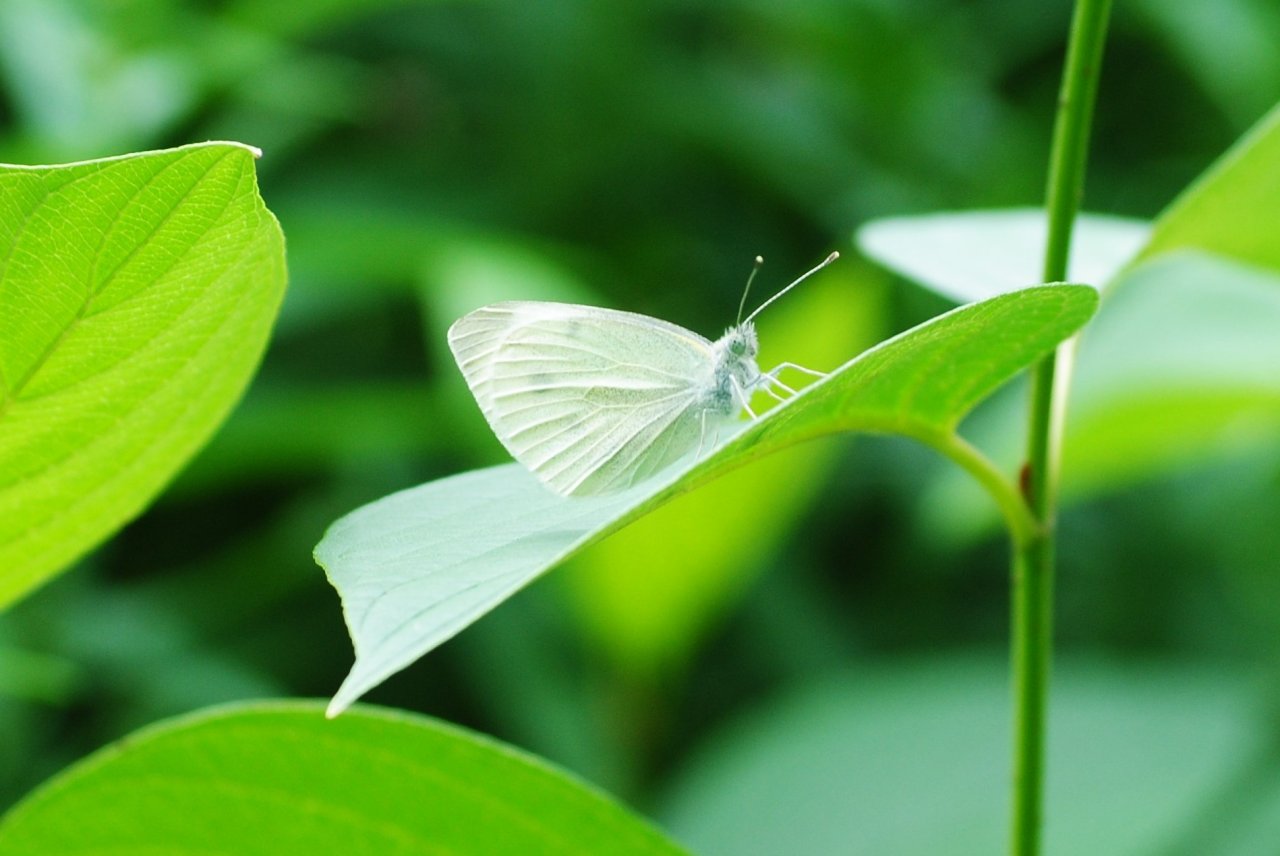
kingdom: Animalia
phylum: Arthropoda
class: Insecta
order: Lepidoptera
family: Pieridae
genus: Pieris
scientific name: Pieris rapae
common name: Cabbage White
